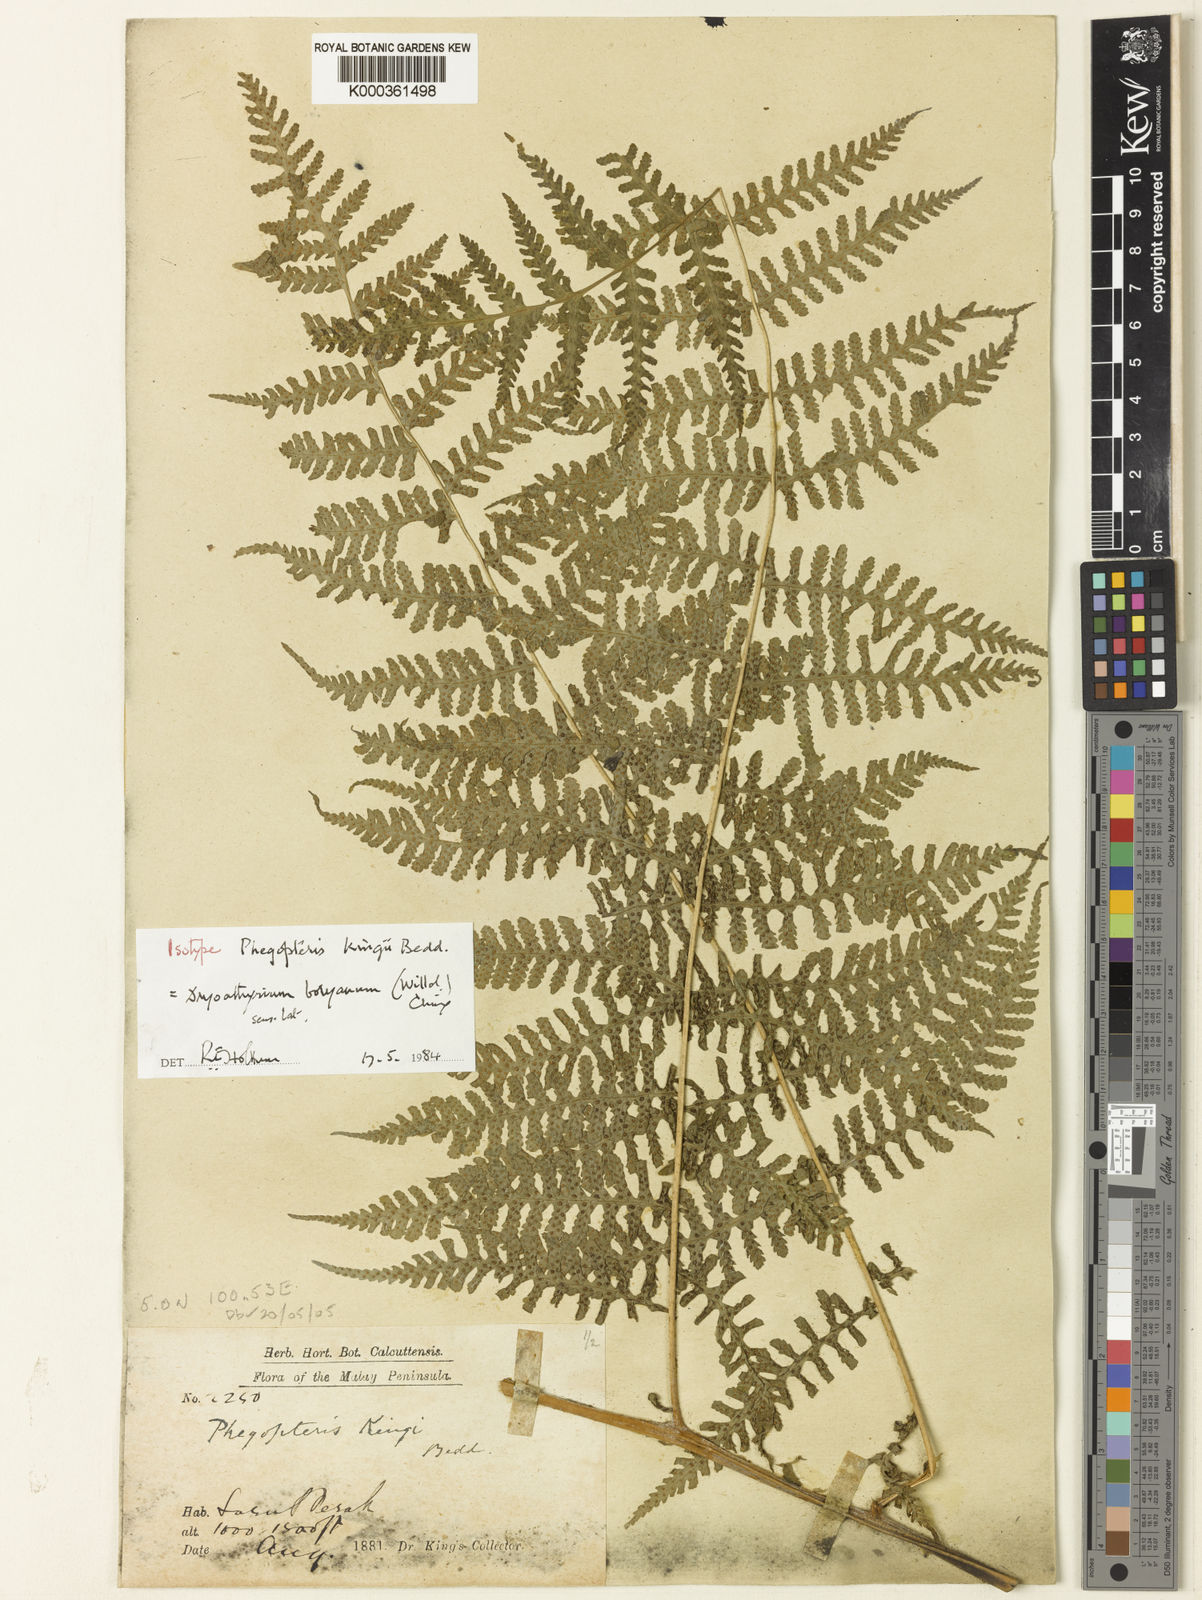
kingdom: Plantae
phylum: Tracheophyta
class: Polypodiopsida
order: Polypodiales
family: Athyriaceae
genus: Deparia
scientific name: Deparia boryana
